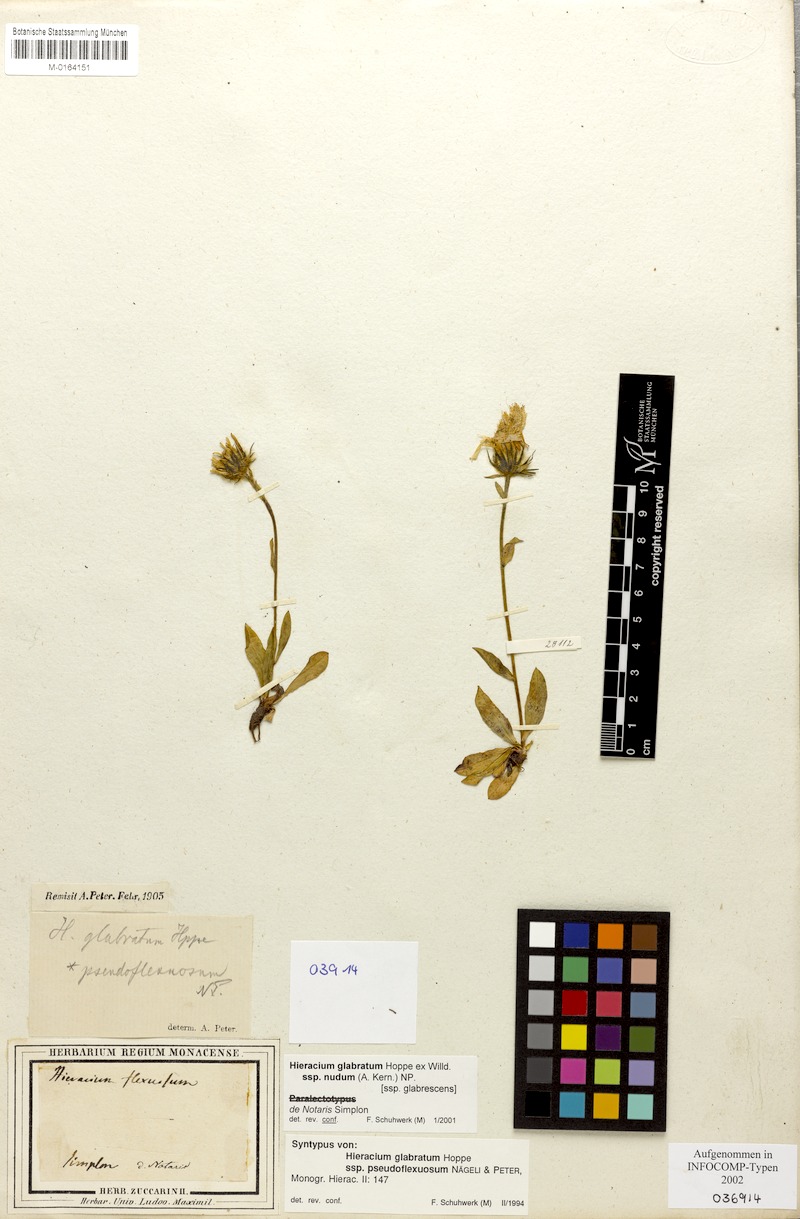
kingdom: Plantae
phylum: Tracheophyta
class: Magnoliopsida
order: Asterales
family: Asteraceae
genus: Hieracium
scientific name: Hieracium glabratum
